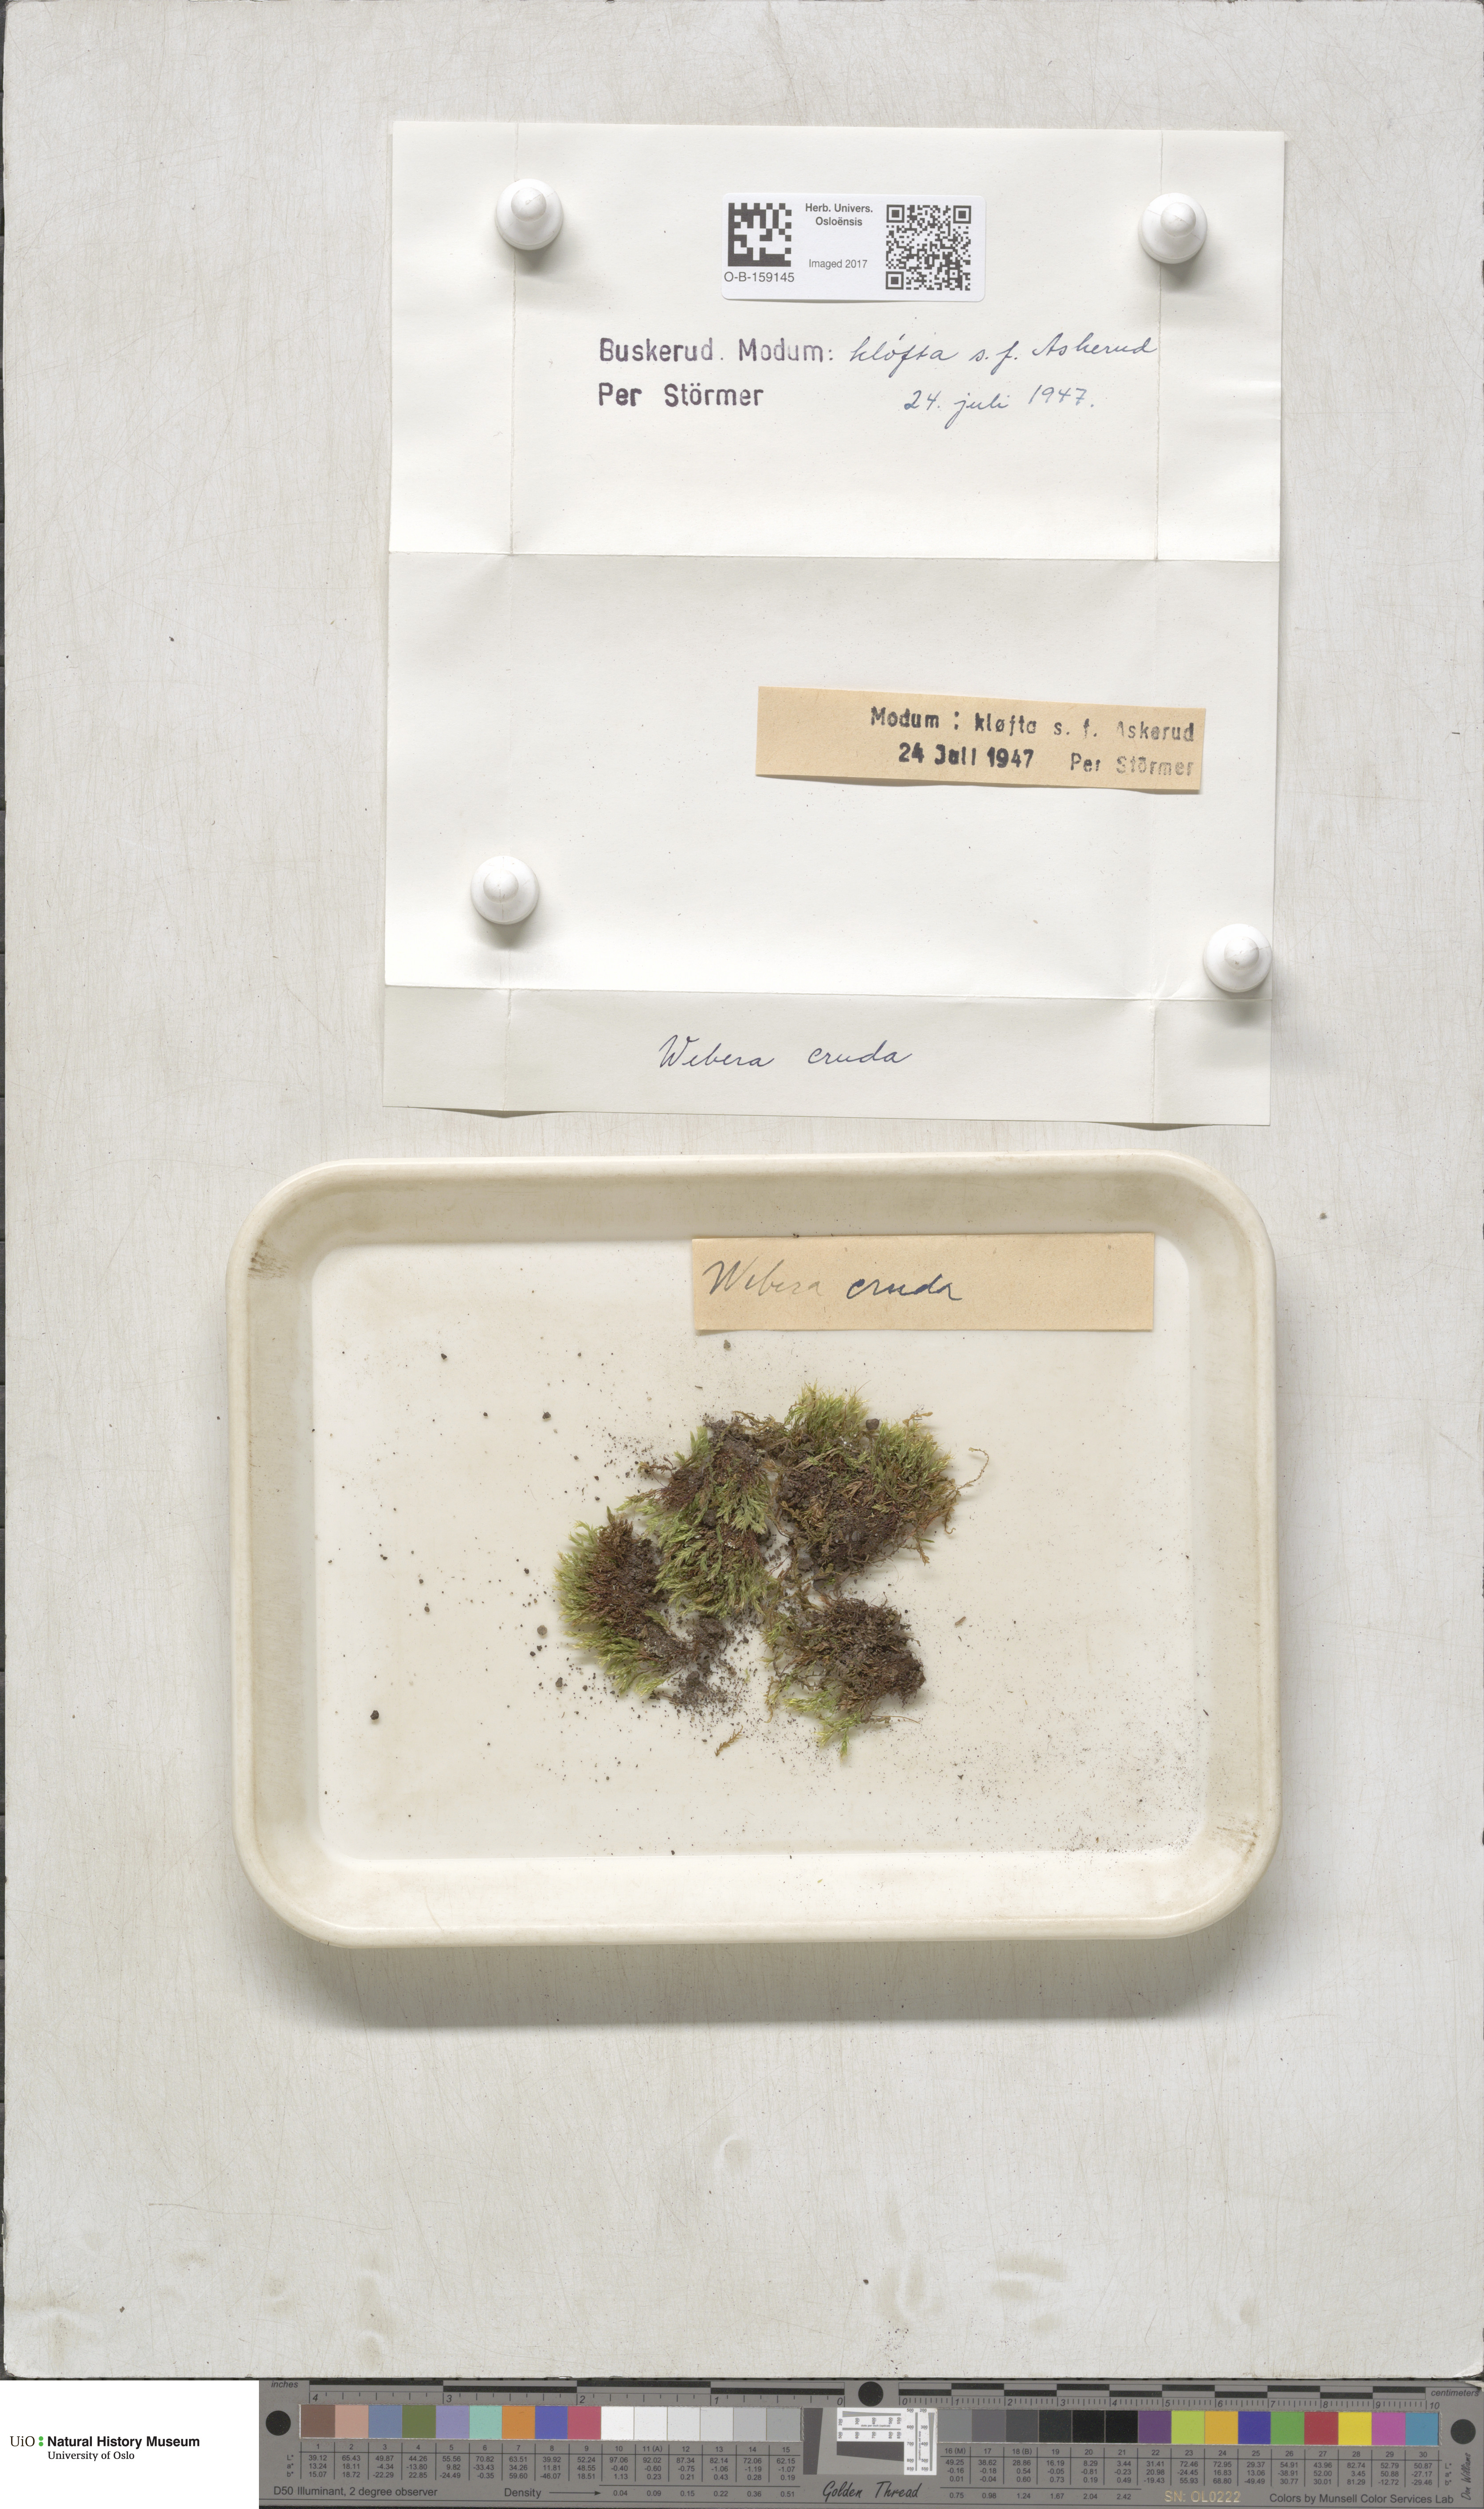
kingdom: Plantae
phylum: Bryophyta
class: Bryopsida
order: Bryales
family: Mniaceae
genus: Pohlia
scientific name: Pohlia cruda
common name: Opal nodding moss
